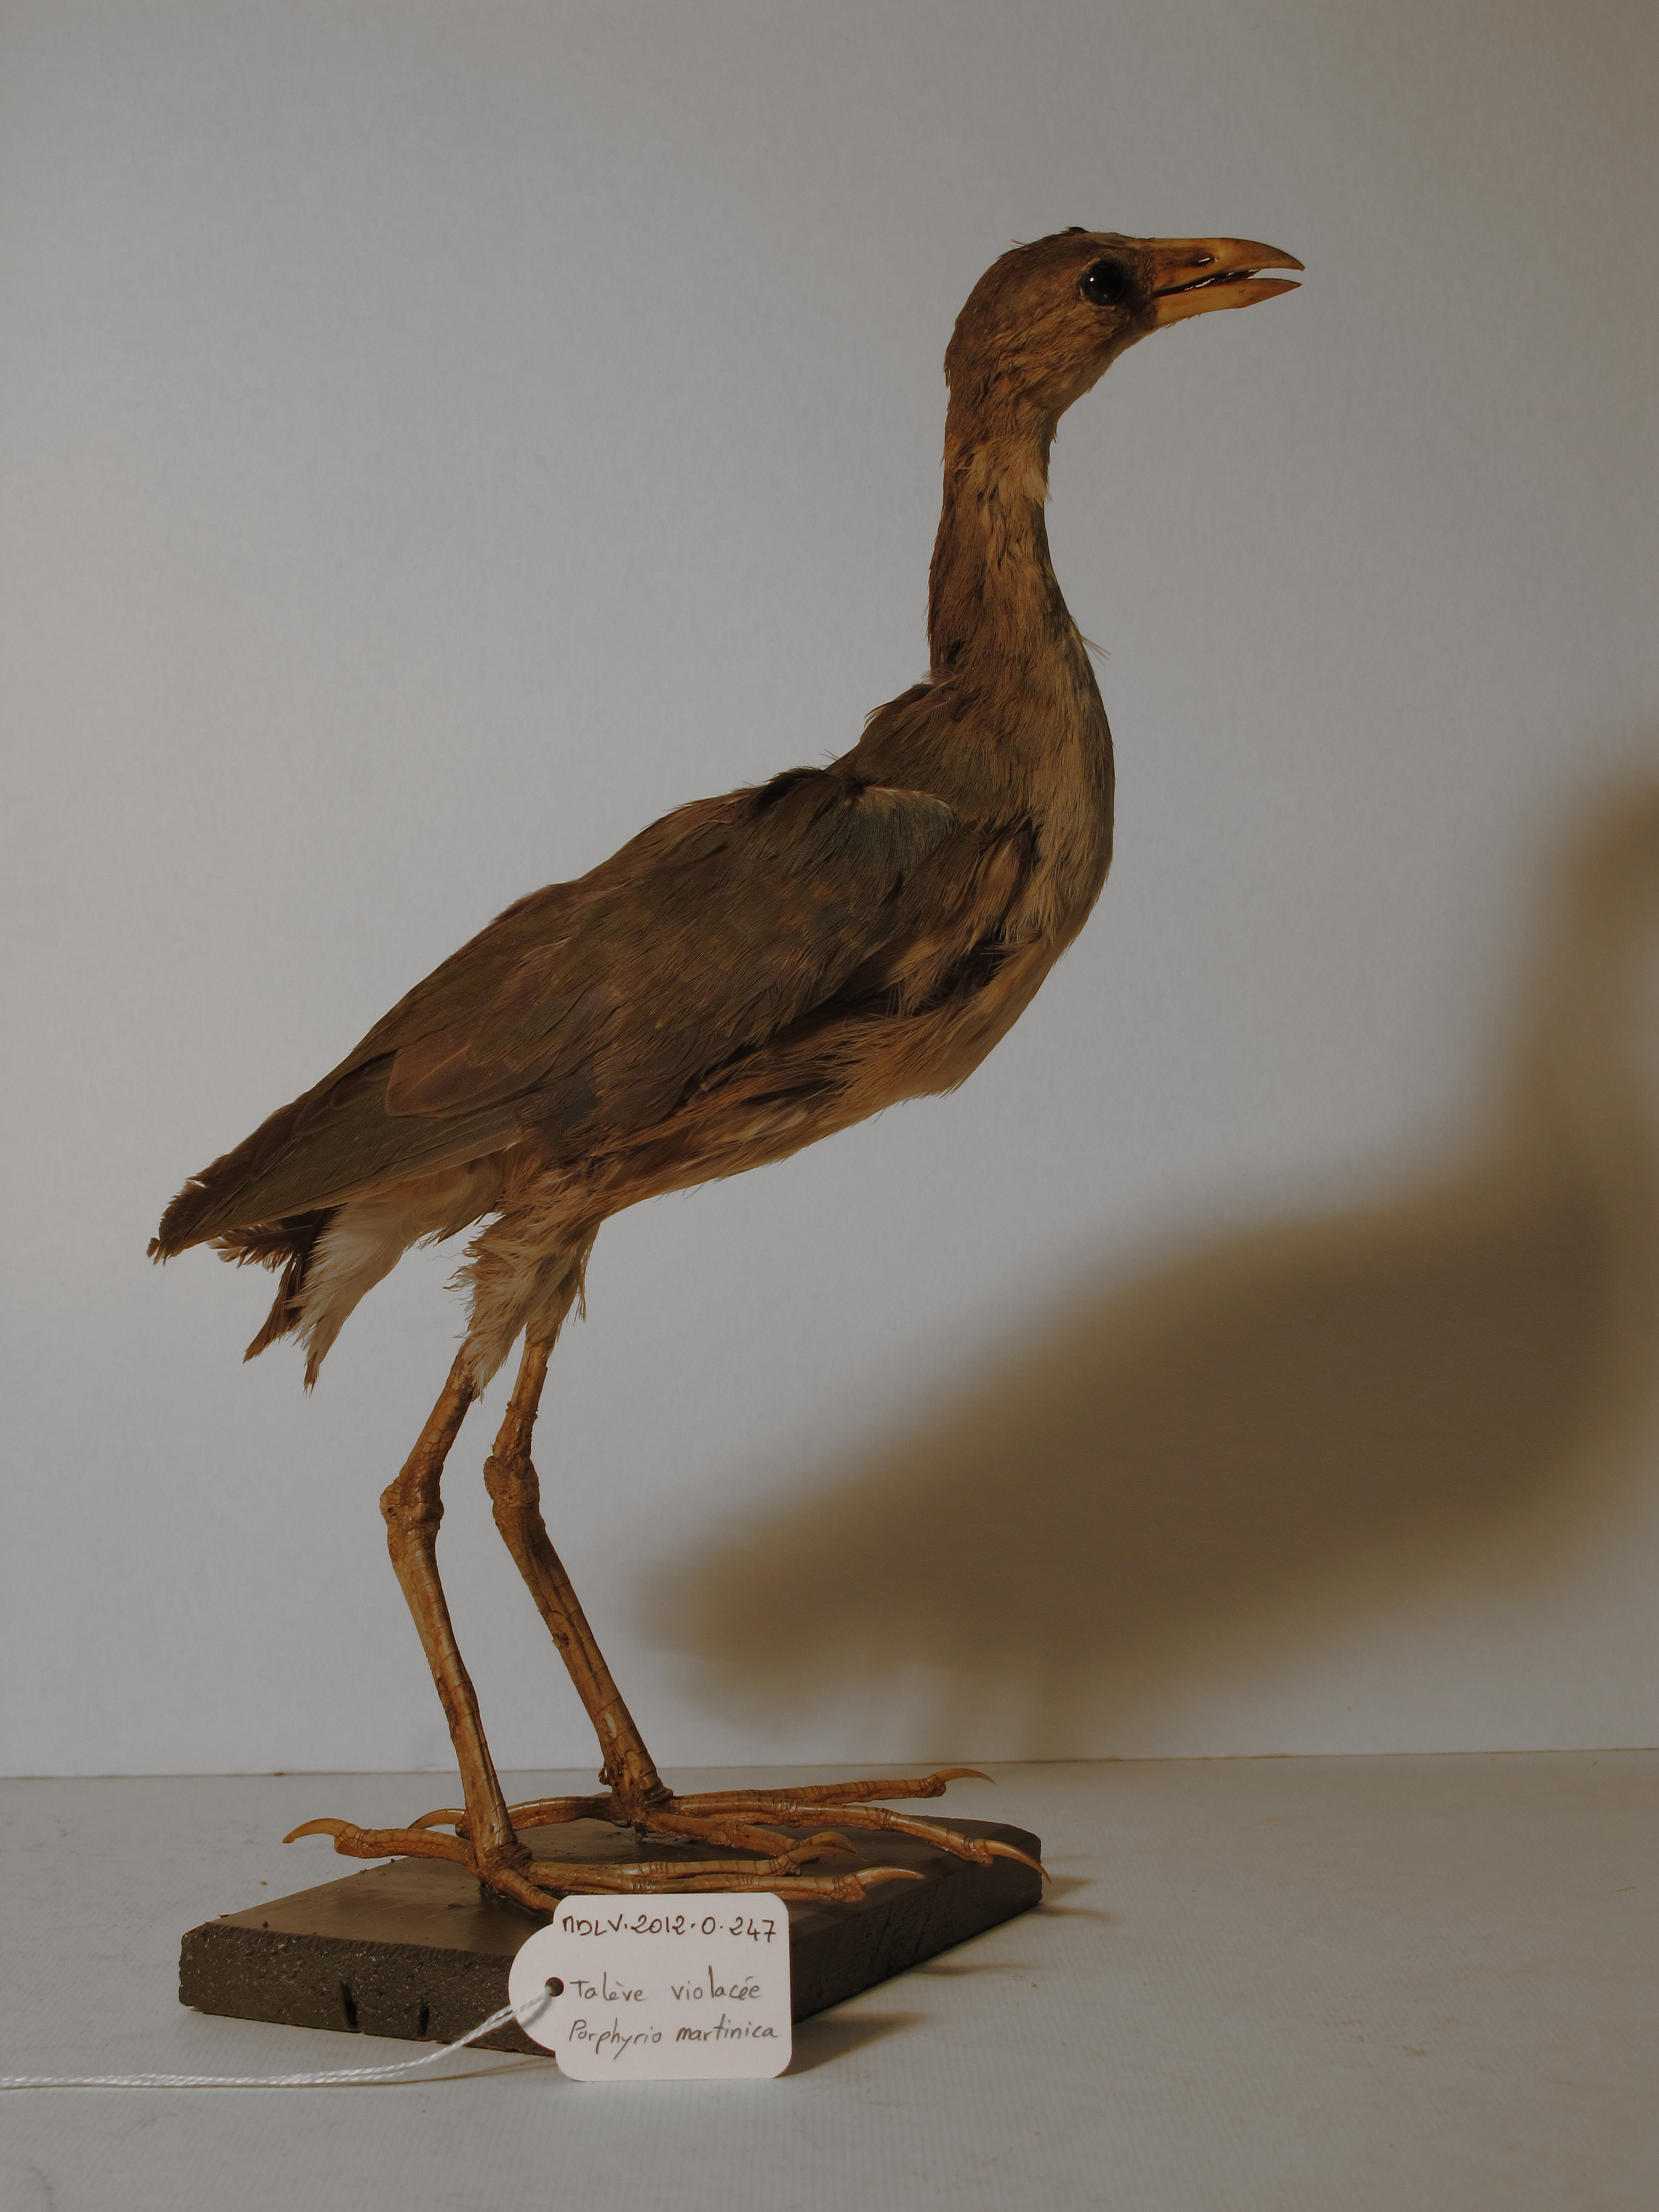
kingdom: Animalia
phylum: Chordata
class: Aves
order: Gruiformes
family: Rallidae
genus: Porphyrio
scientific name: Porphyrio martinica
